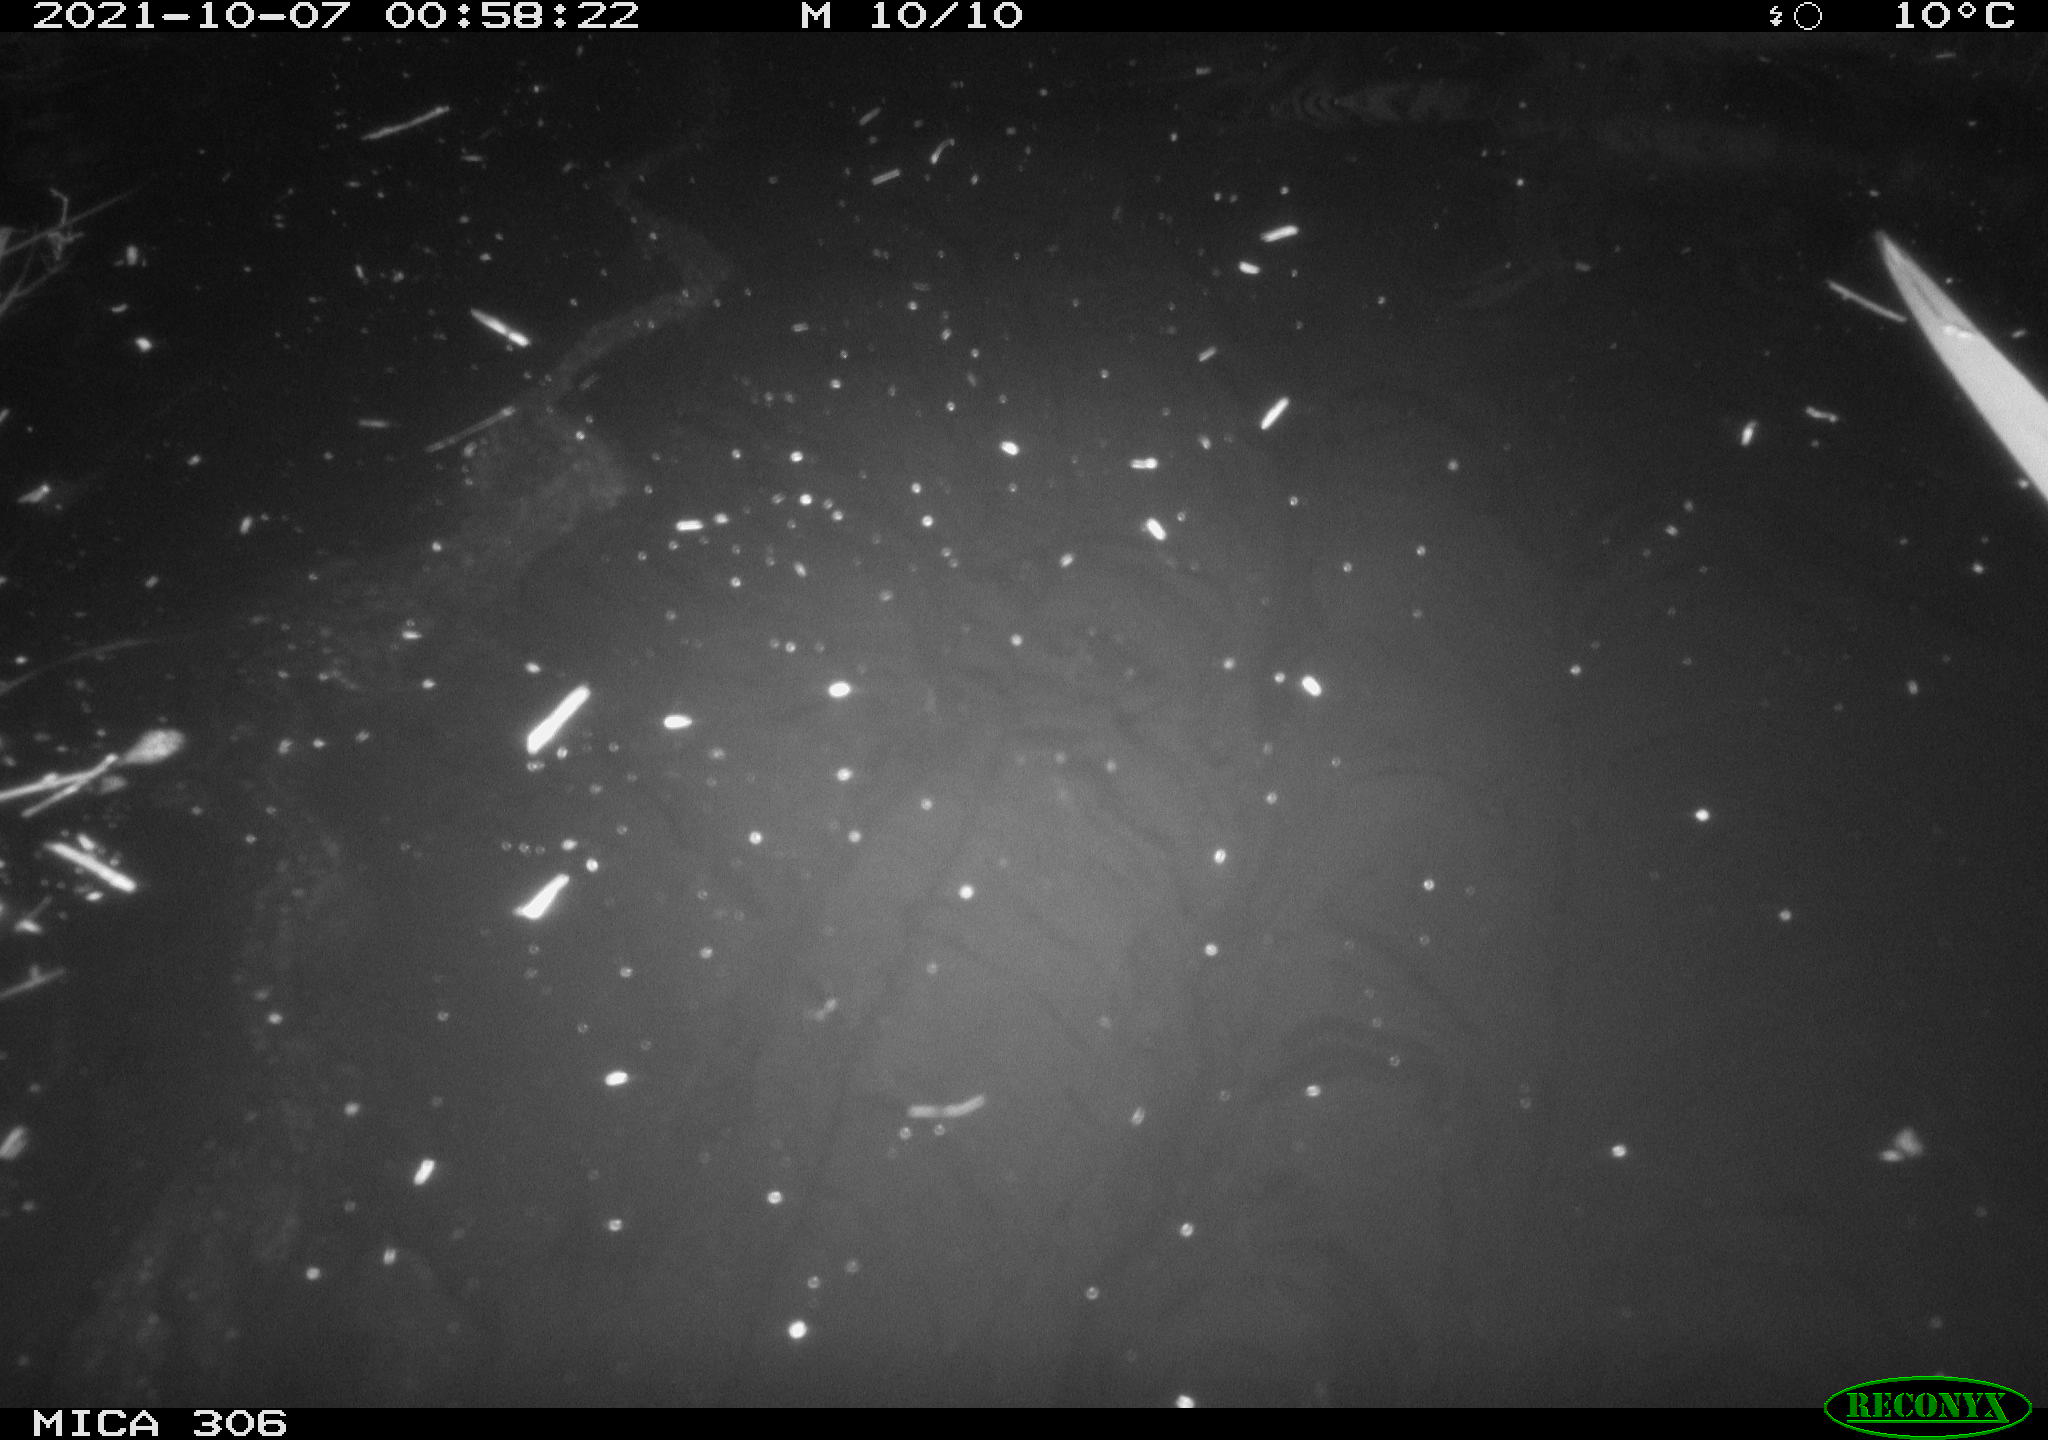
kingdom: Animalia
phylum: Chordata
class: Mammalia
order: Rodentia
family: Cricetidae
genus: Ondatra
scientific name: Ondatra zibethicus
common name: Muskrat
